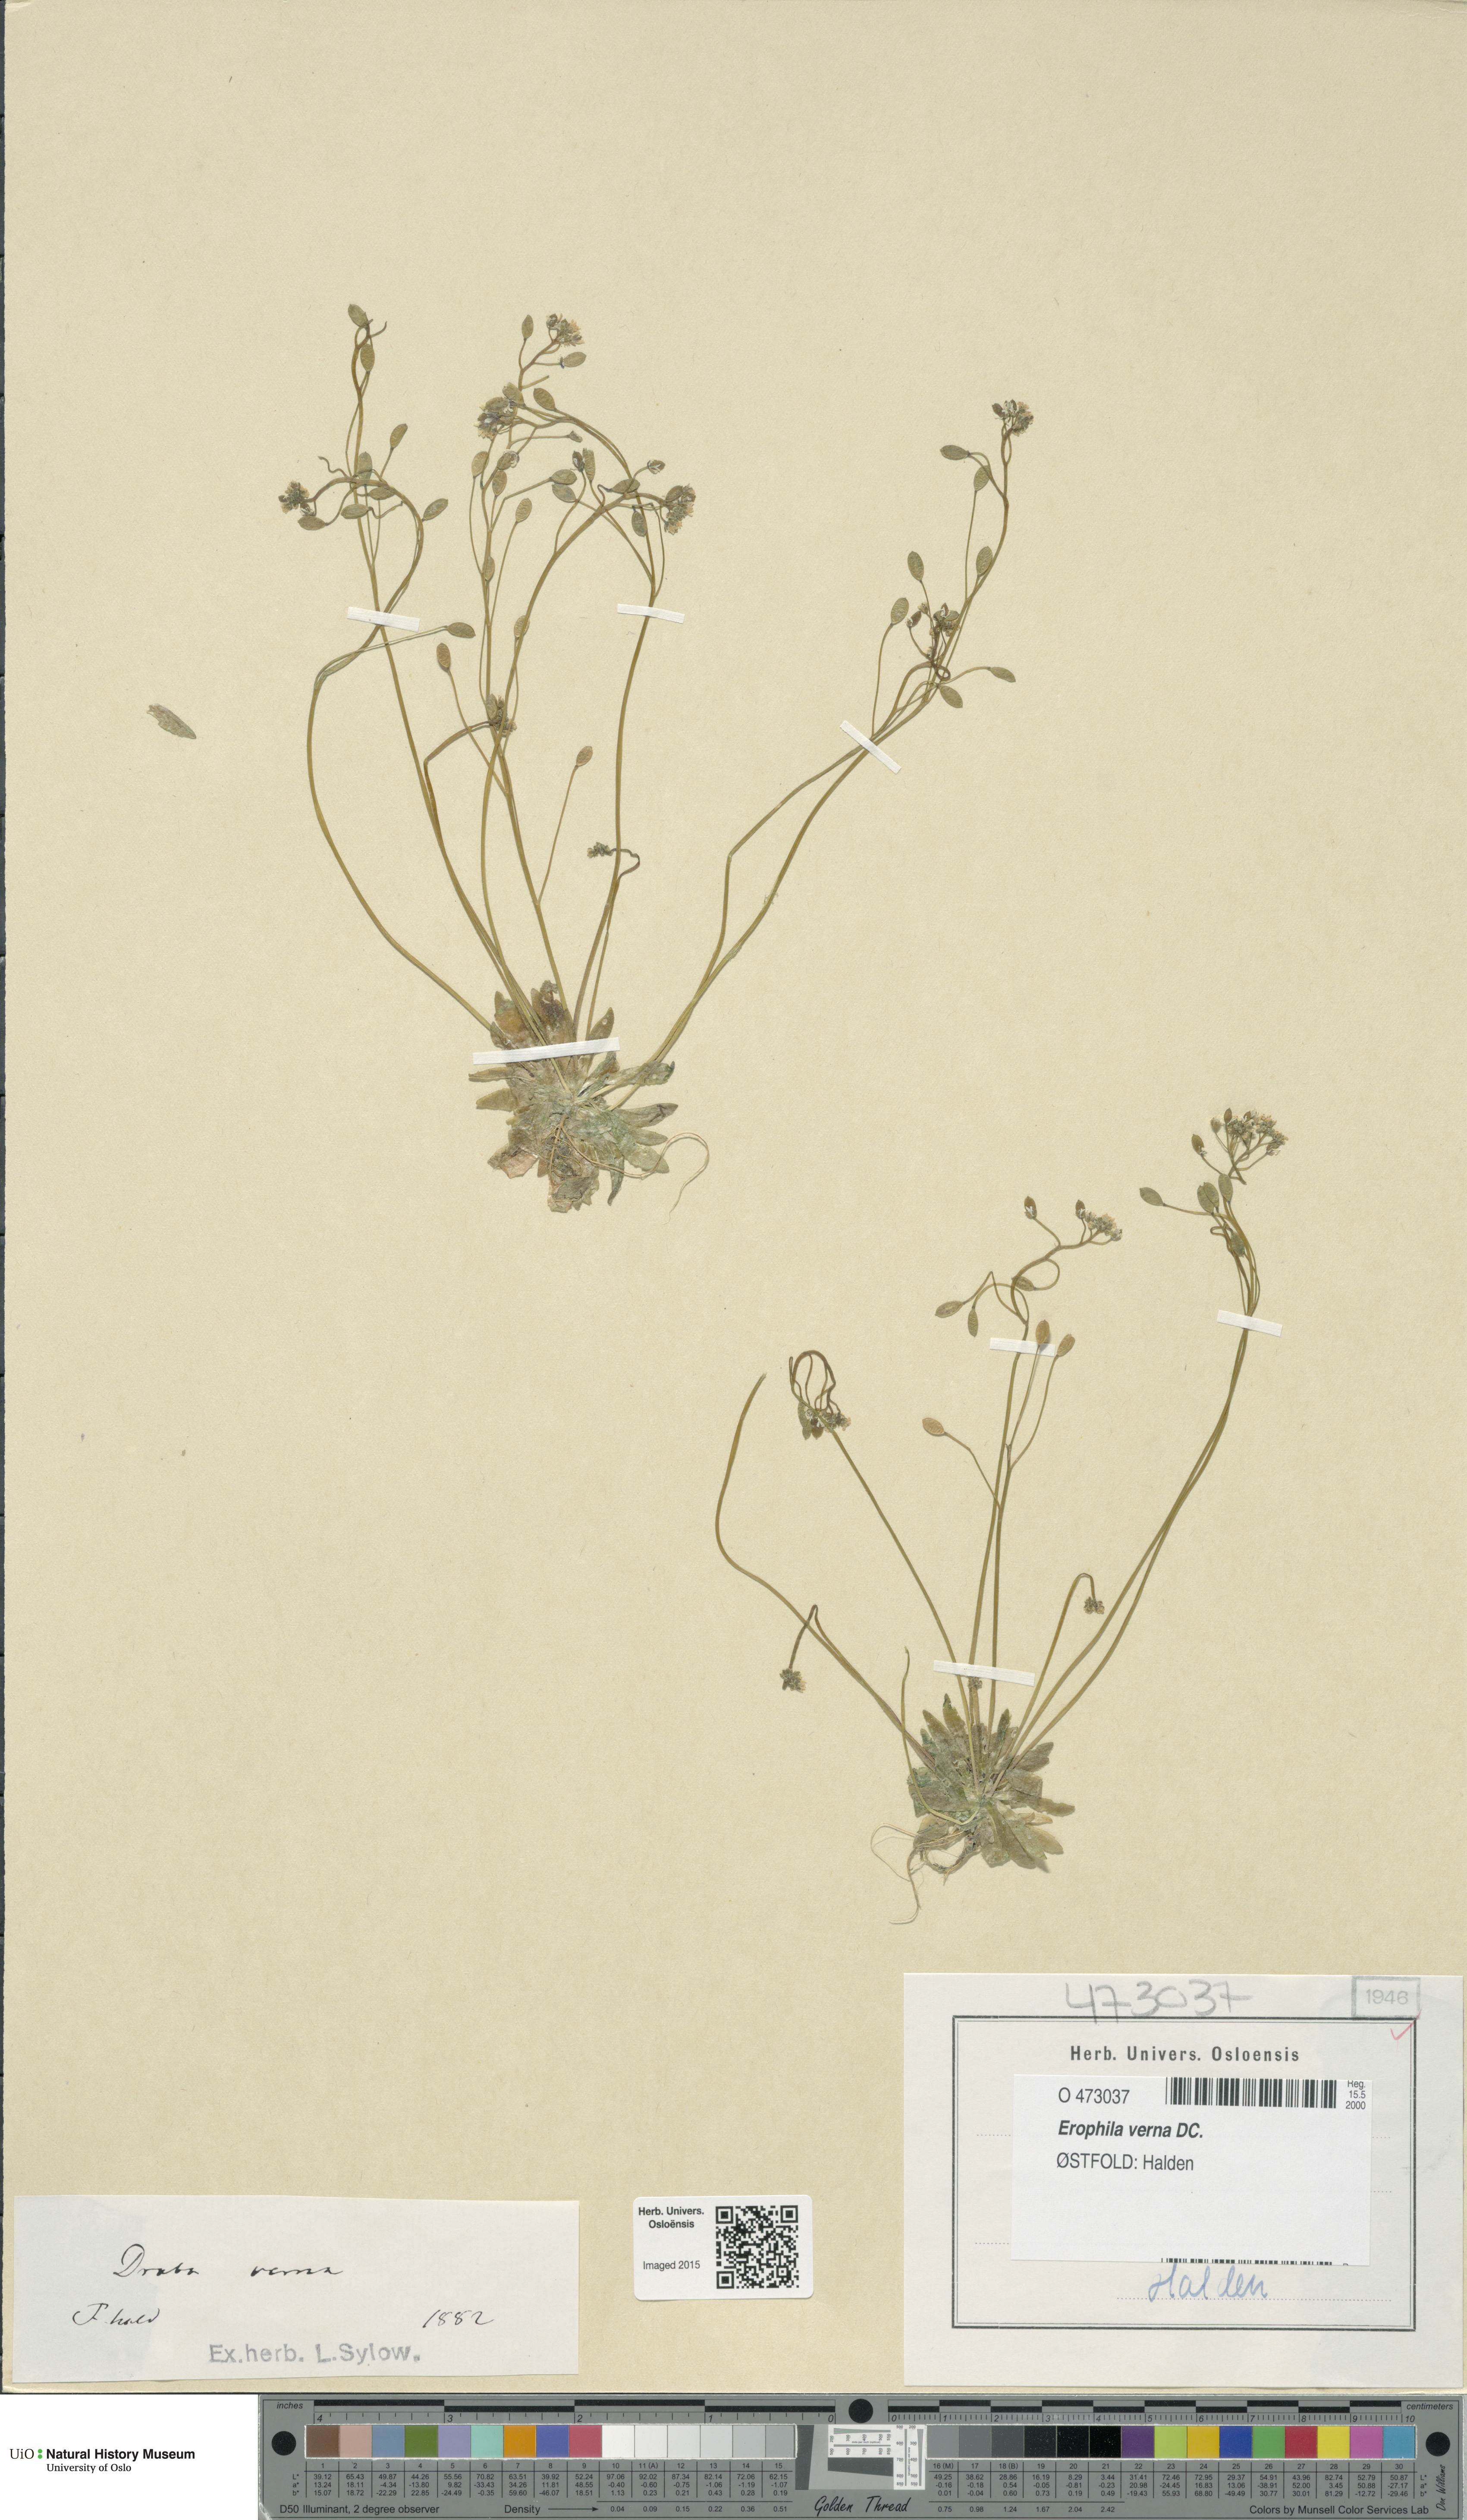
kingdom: Plantae
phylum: Tracheophyta
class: Magnoliopsida
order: Brassicales
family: Brassicaceae
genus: Draba
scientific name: Draba verna
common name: Spring draba
